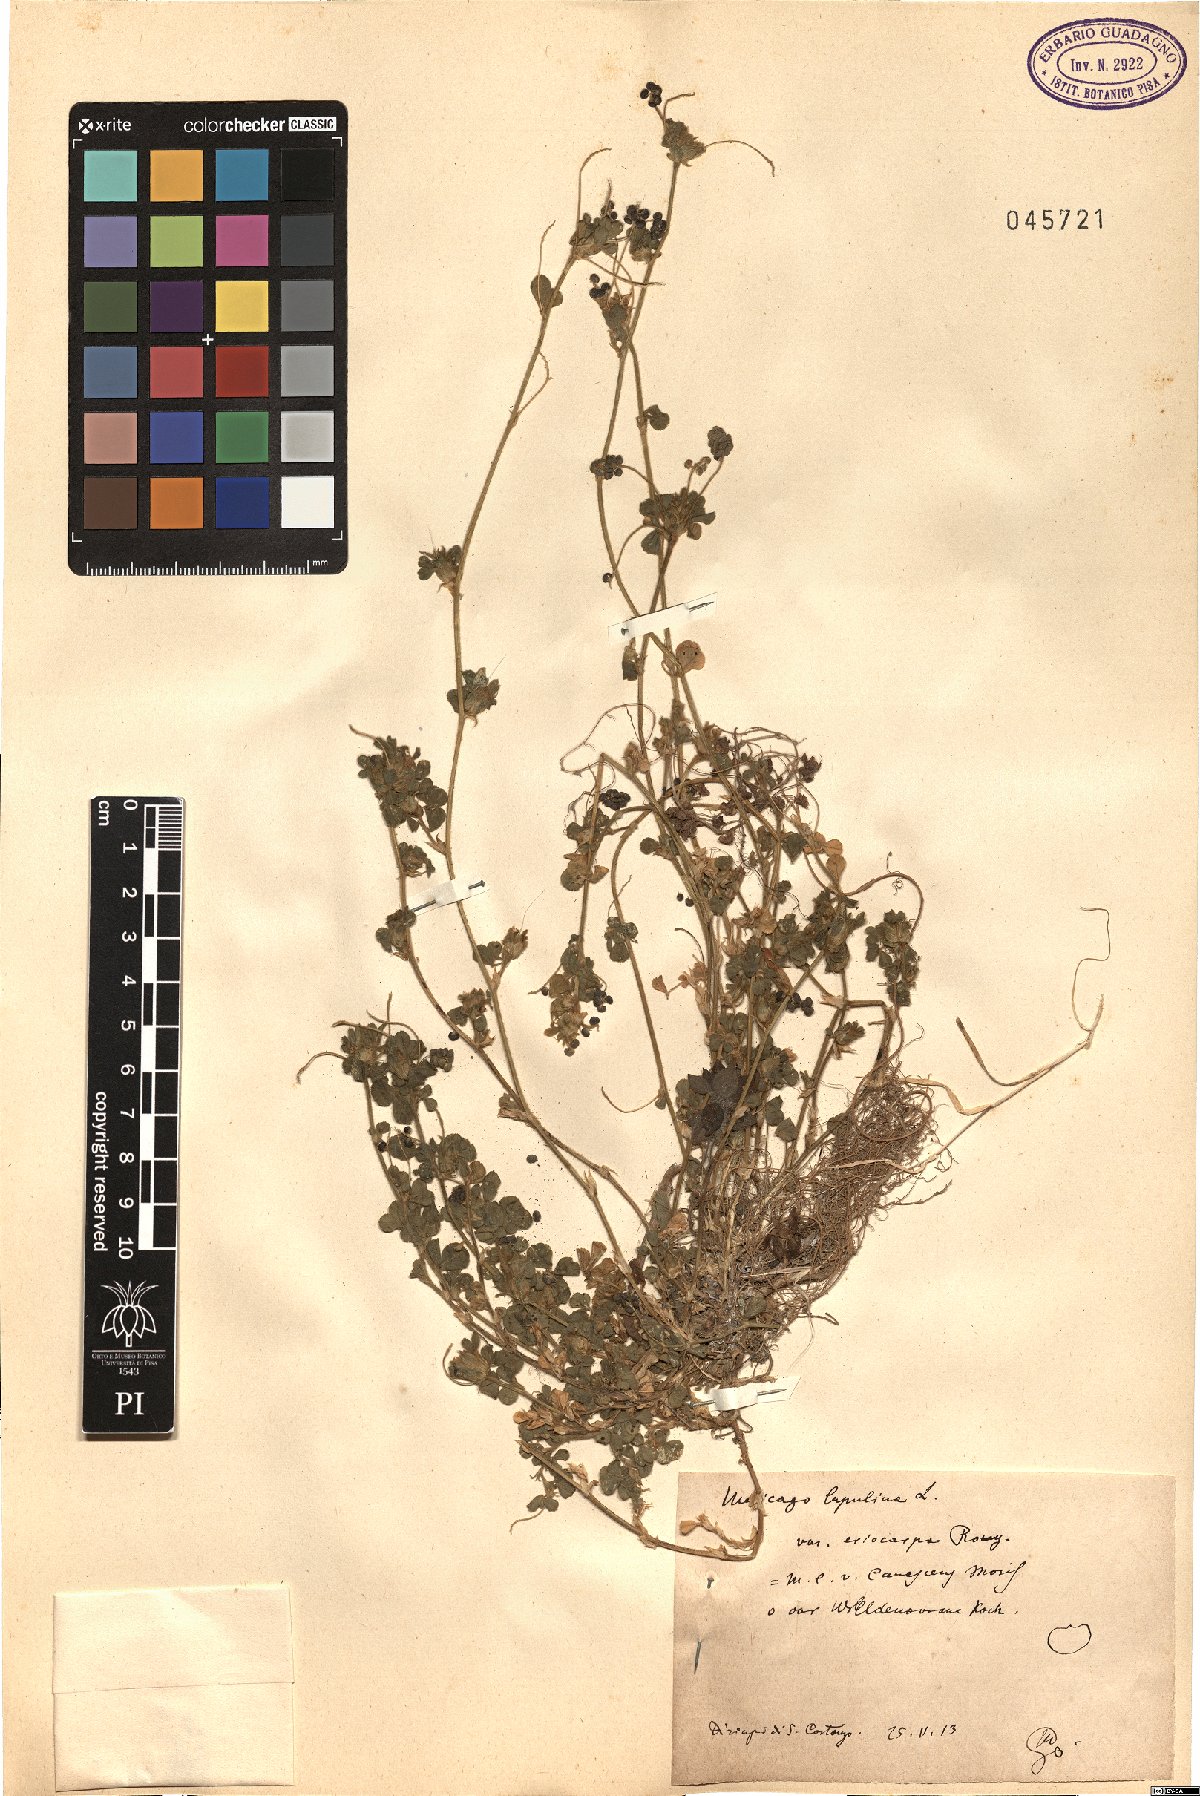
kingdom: Plantae
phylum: Tracheophyta
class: Magnoliopsida
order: Fabales
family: Fabaceae
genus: Medicago
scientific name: Medicago lupulina
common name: Black medick
